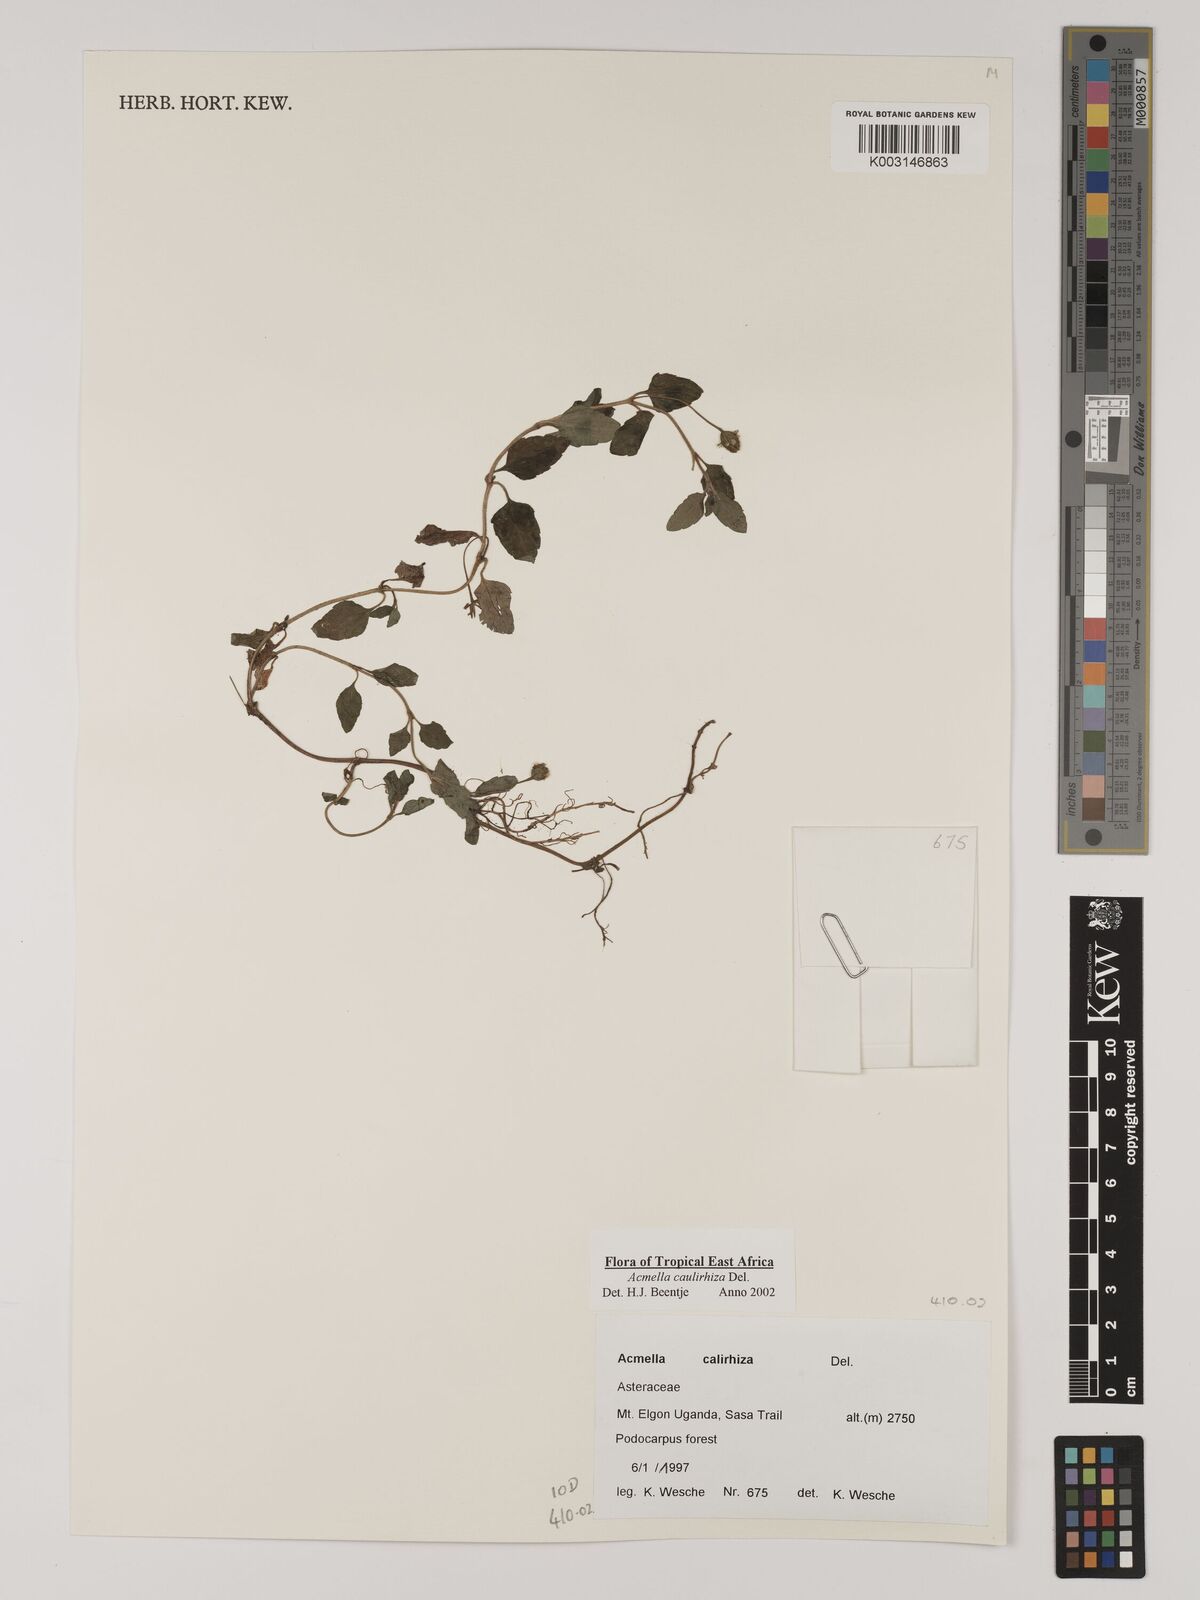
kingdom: Plantae
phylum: Tracheophyta
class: Magnoliopsida
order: Asterales
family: Asteraceae
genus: Acmella
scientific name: Acmella caulirhiza
